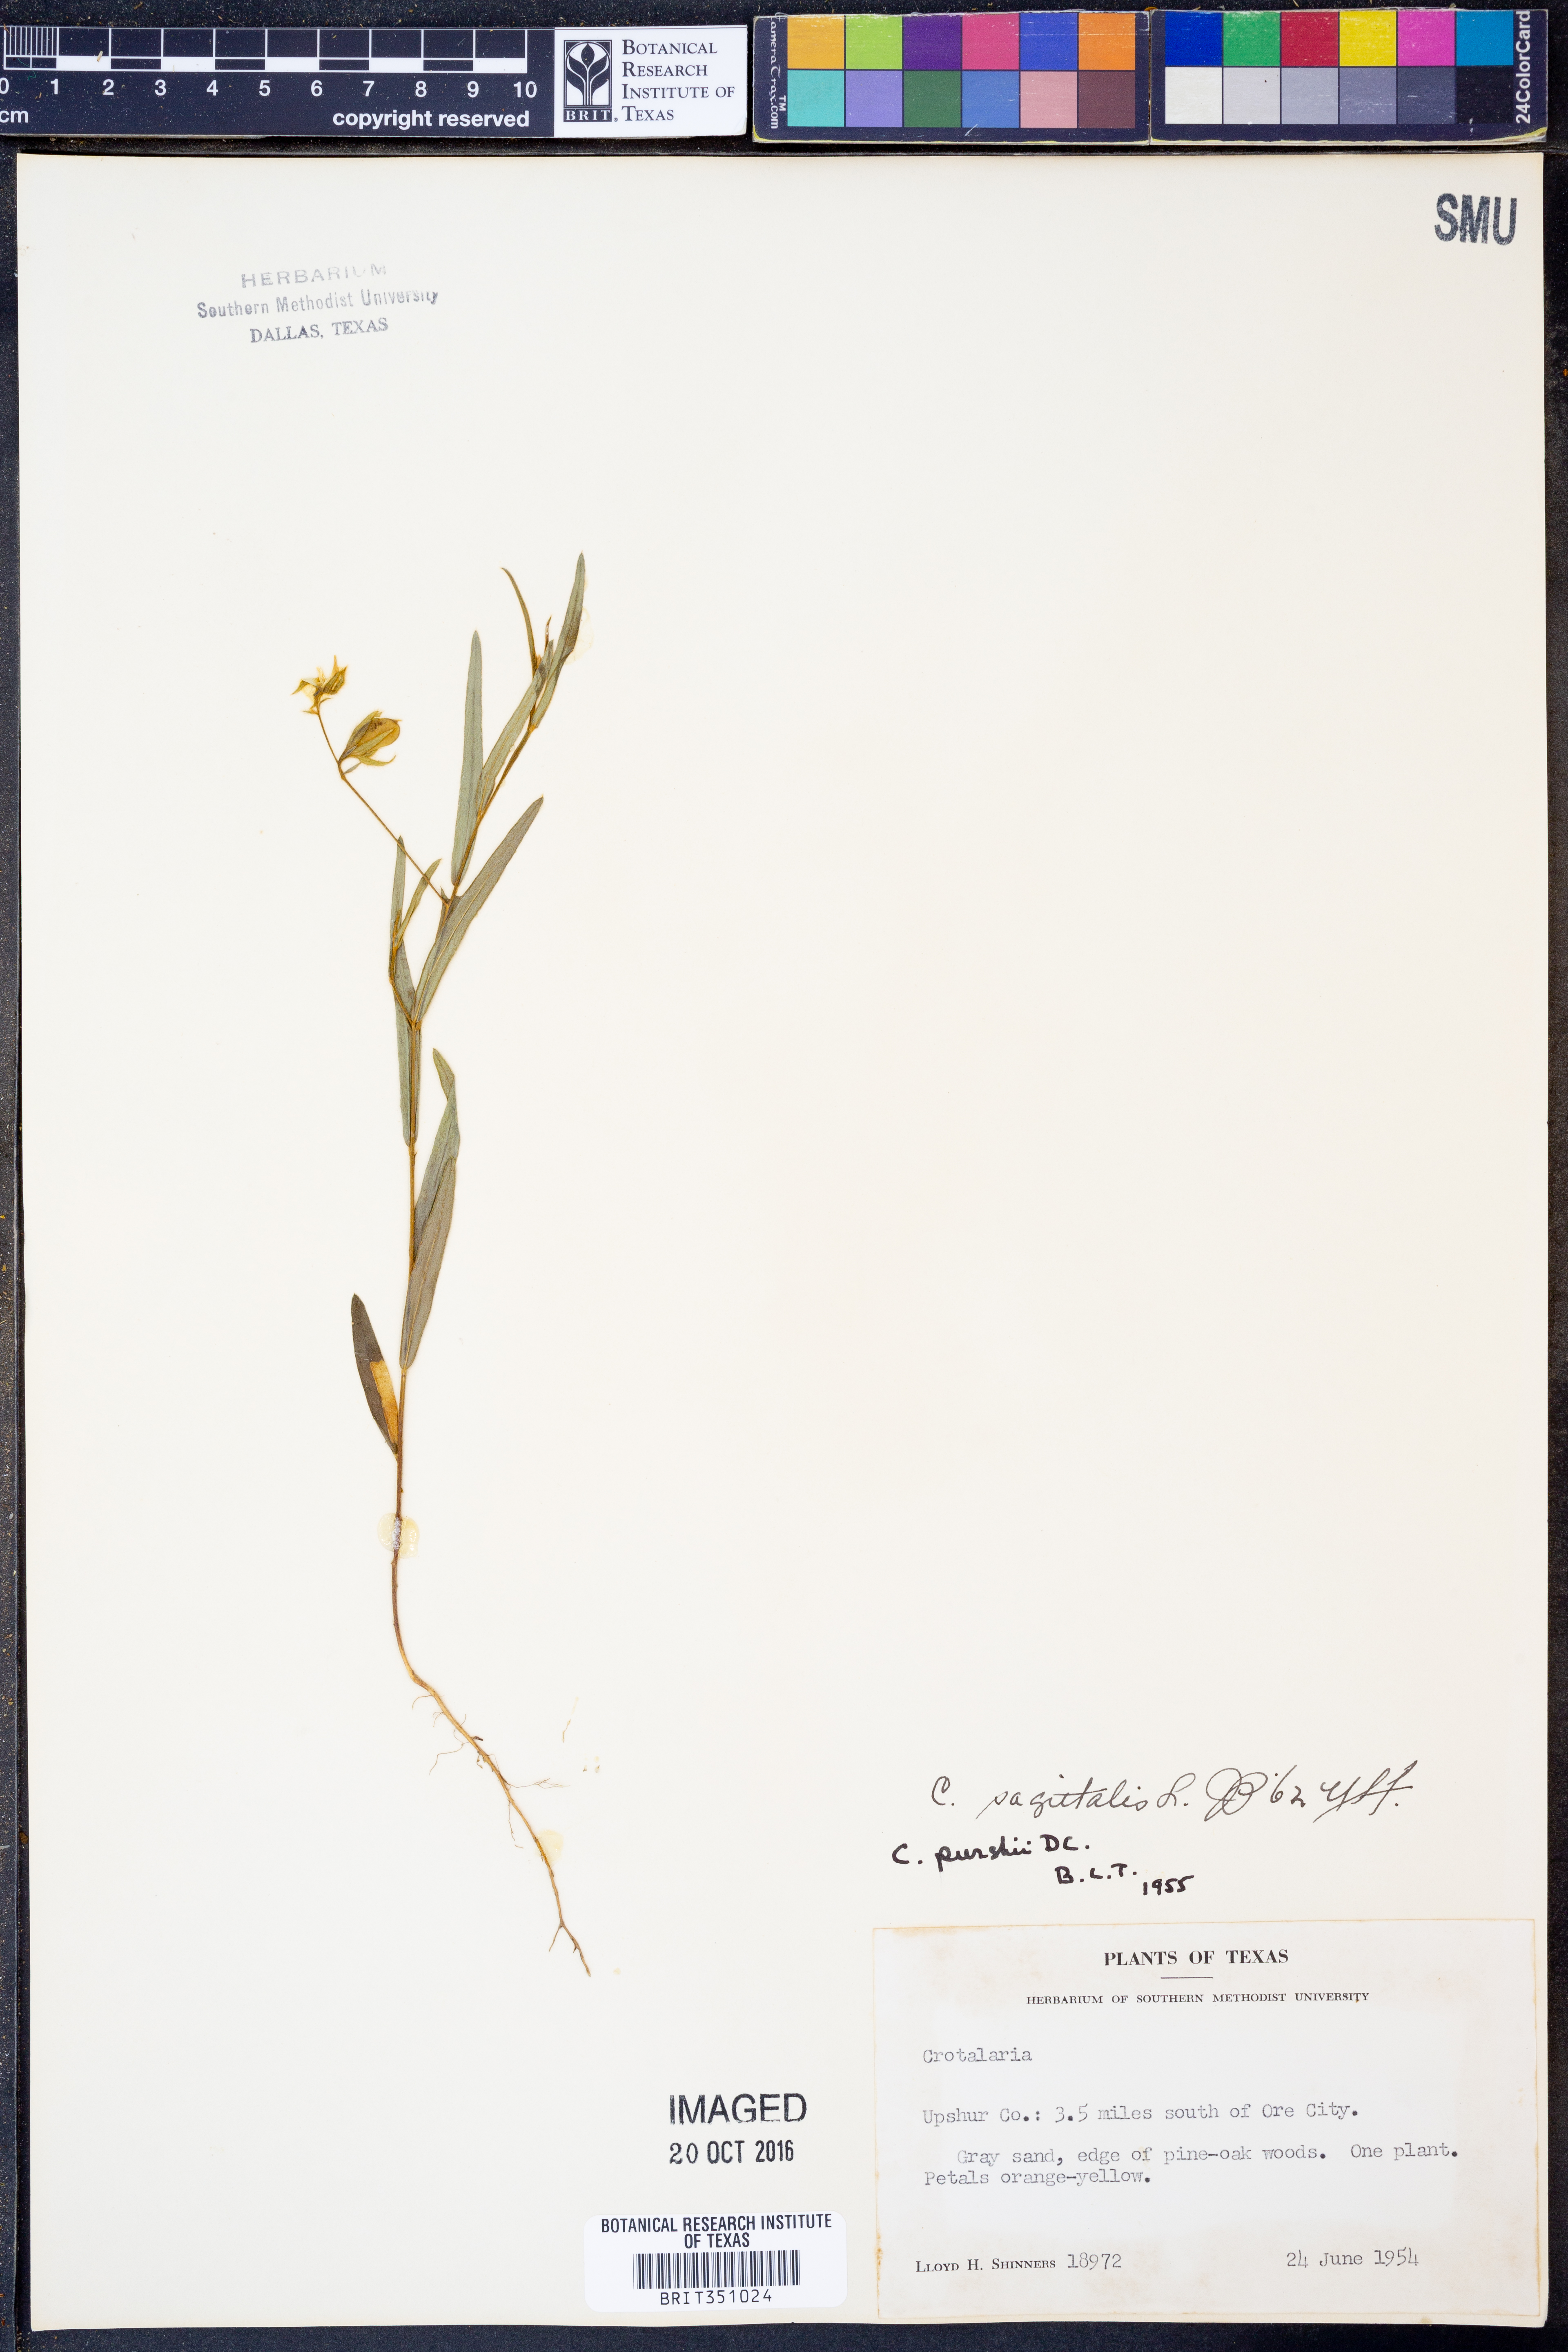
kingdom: Plantae
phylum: Tracheophyta
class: Magnoliopsida
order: Fabales
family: Fabaceae
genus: Crotalaria
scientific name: Crotalaria sagittalis
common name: Arrowhead rattlebox
